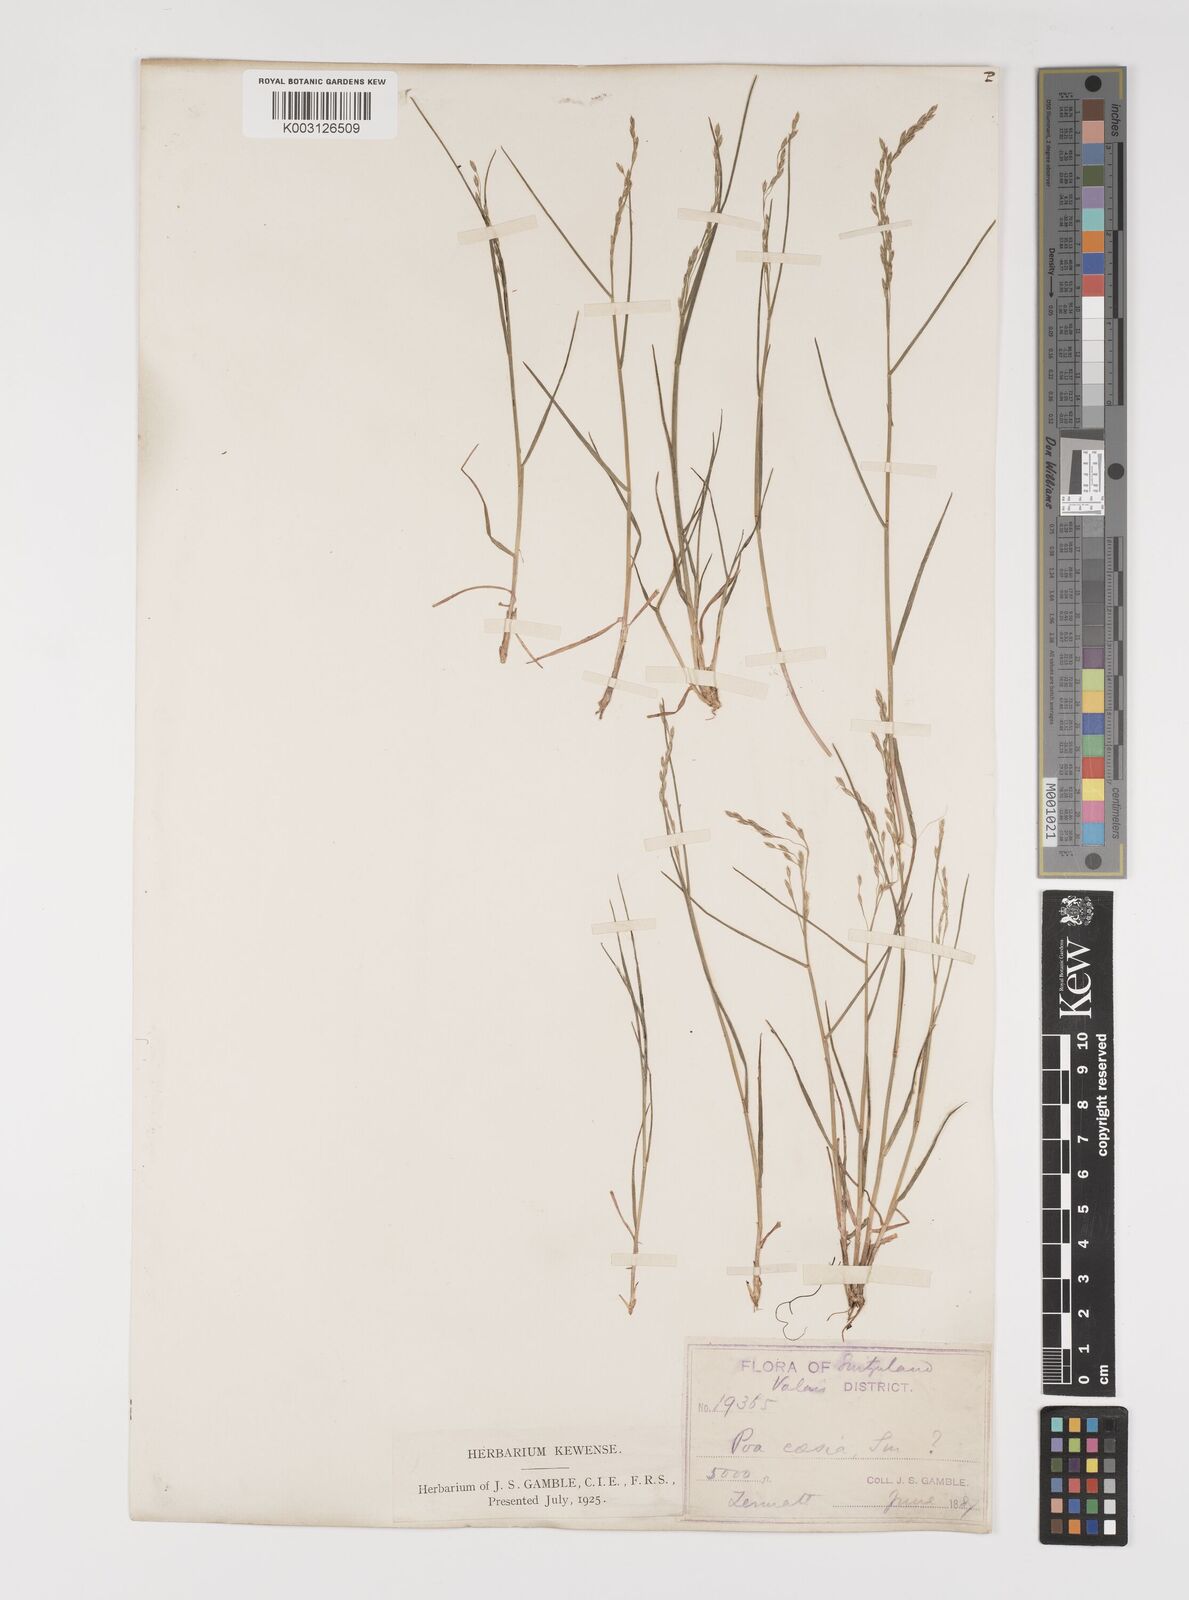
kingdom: Plantae
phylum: Tracheophyta
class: Liliopsida
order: Poales
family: Poaceae
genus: Poa
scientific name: Poa nemoralis
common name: Wood bluegrass
